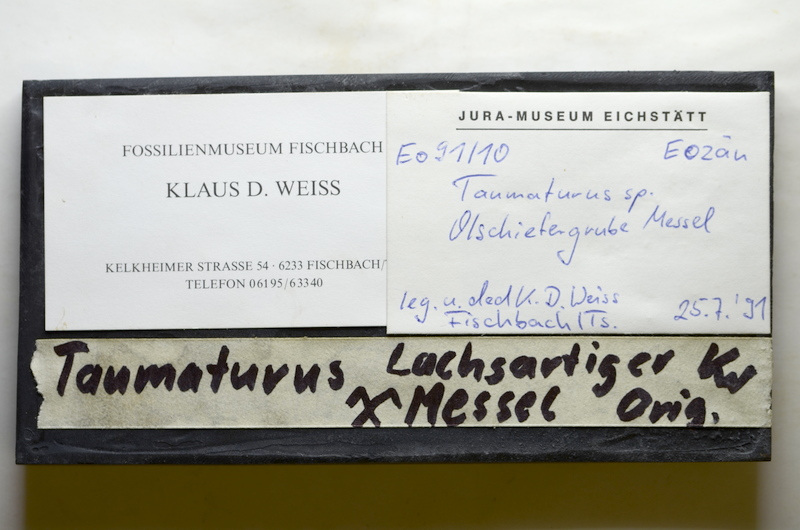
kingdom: Animalia
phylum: Chordata
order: Salmoniformes
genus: Thaumaturus
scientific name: Thaumaturus
